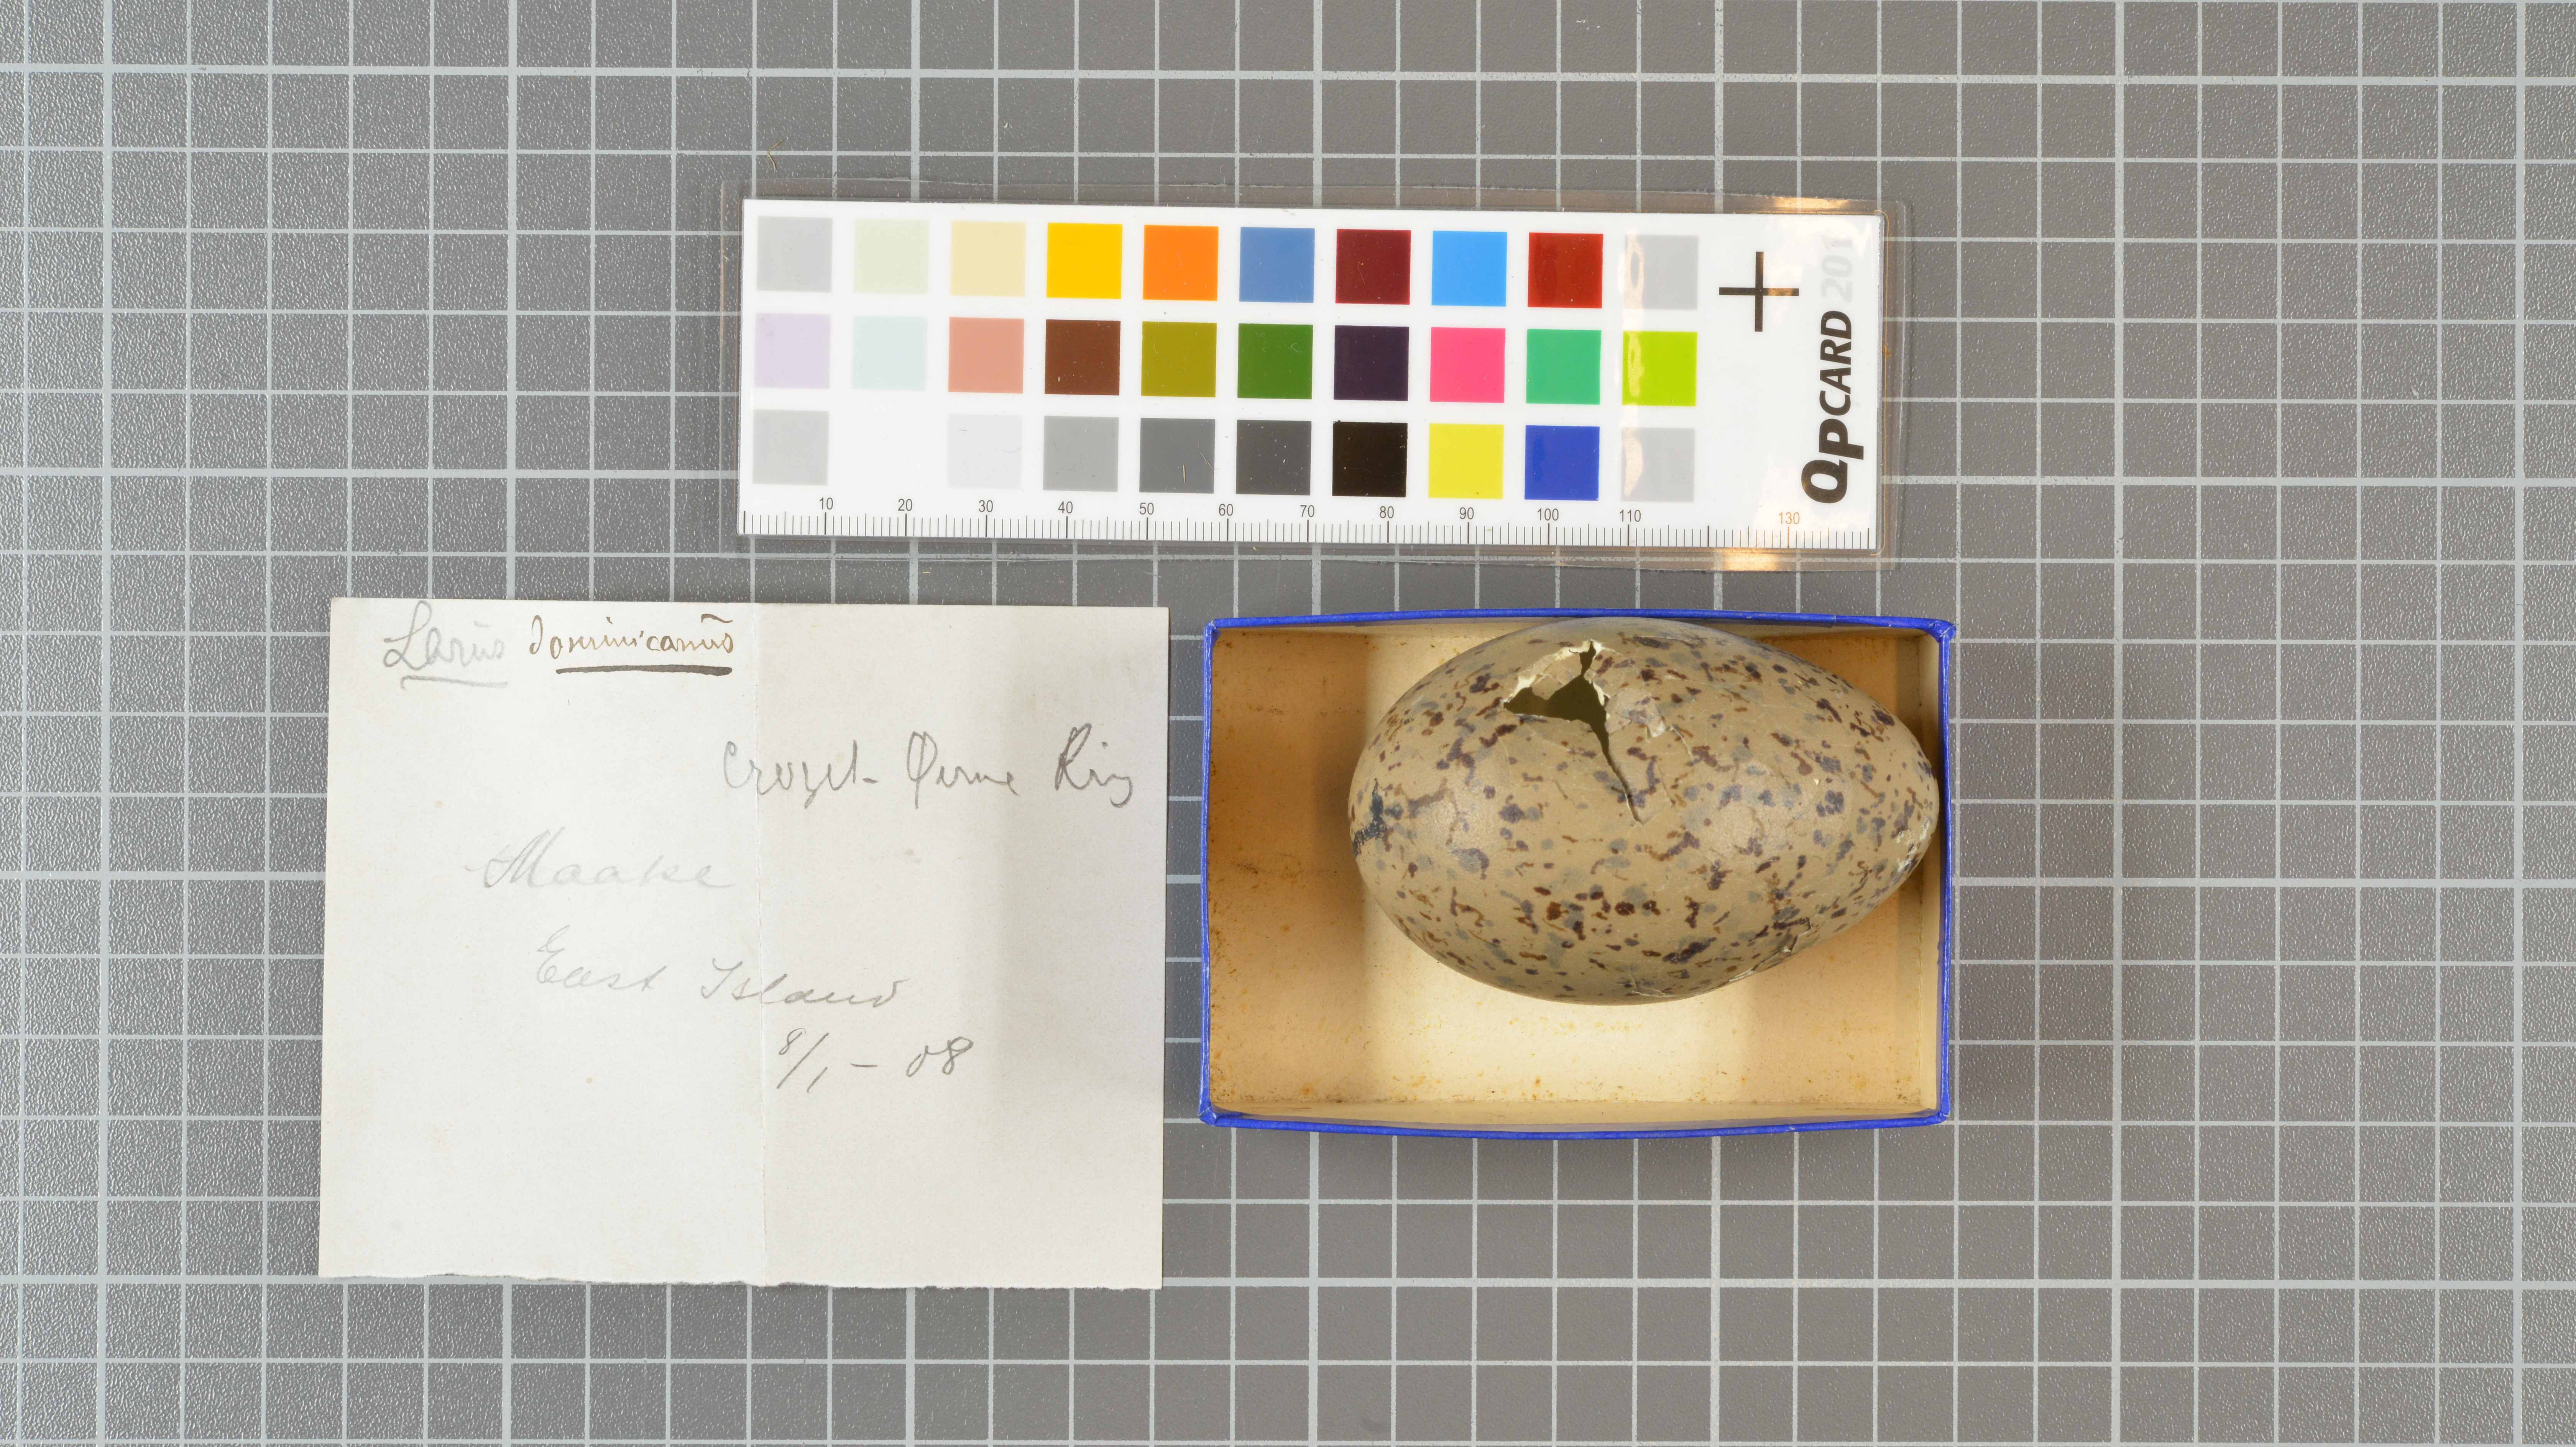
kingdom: Animalia
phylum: Chordata
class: Aves
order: Charadriiformes
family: Laridae
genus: Larus
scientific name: Larus dominicanus
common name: Kelp gull
